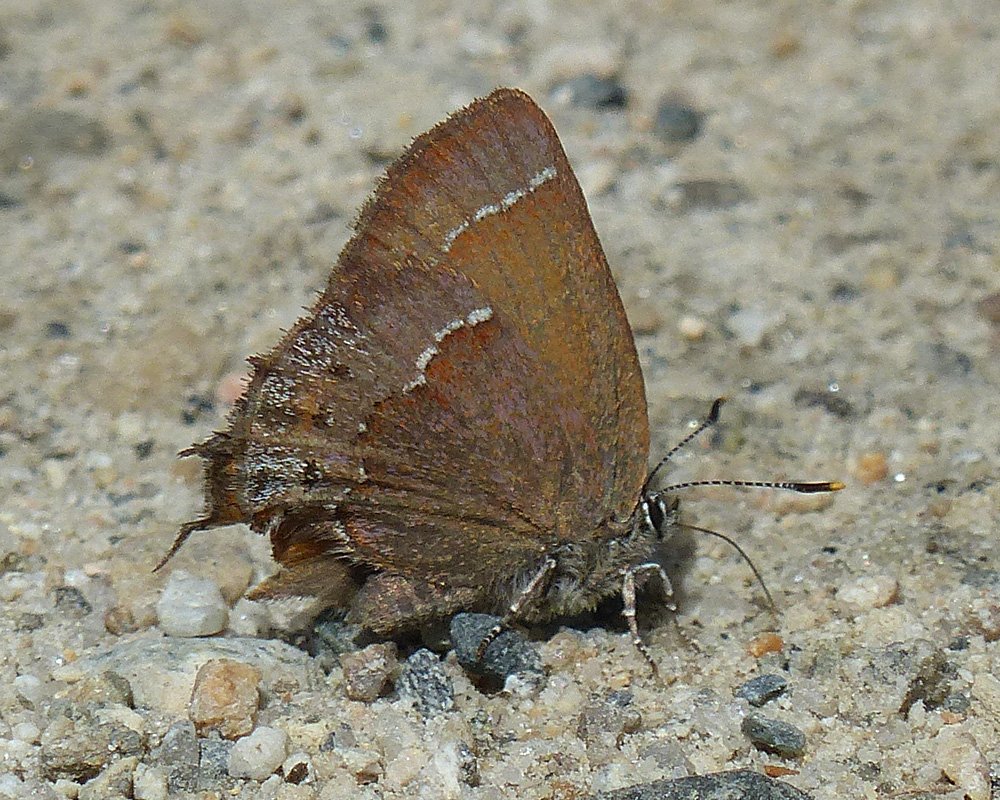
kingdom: Animalia
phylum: Arthropoda
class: Insecta
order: Lepidoptera
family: Lycaenidae
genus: Mitoura
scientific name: Mitoura nelsoni
